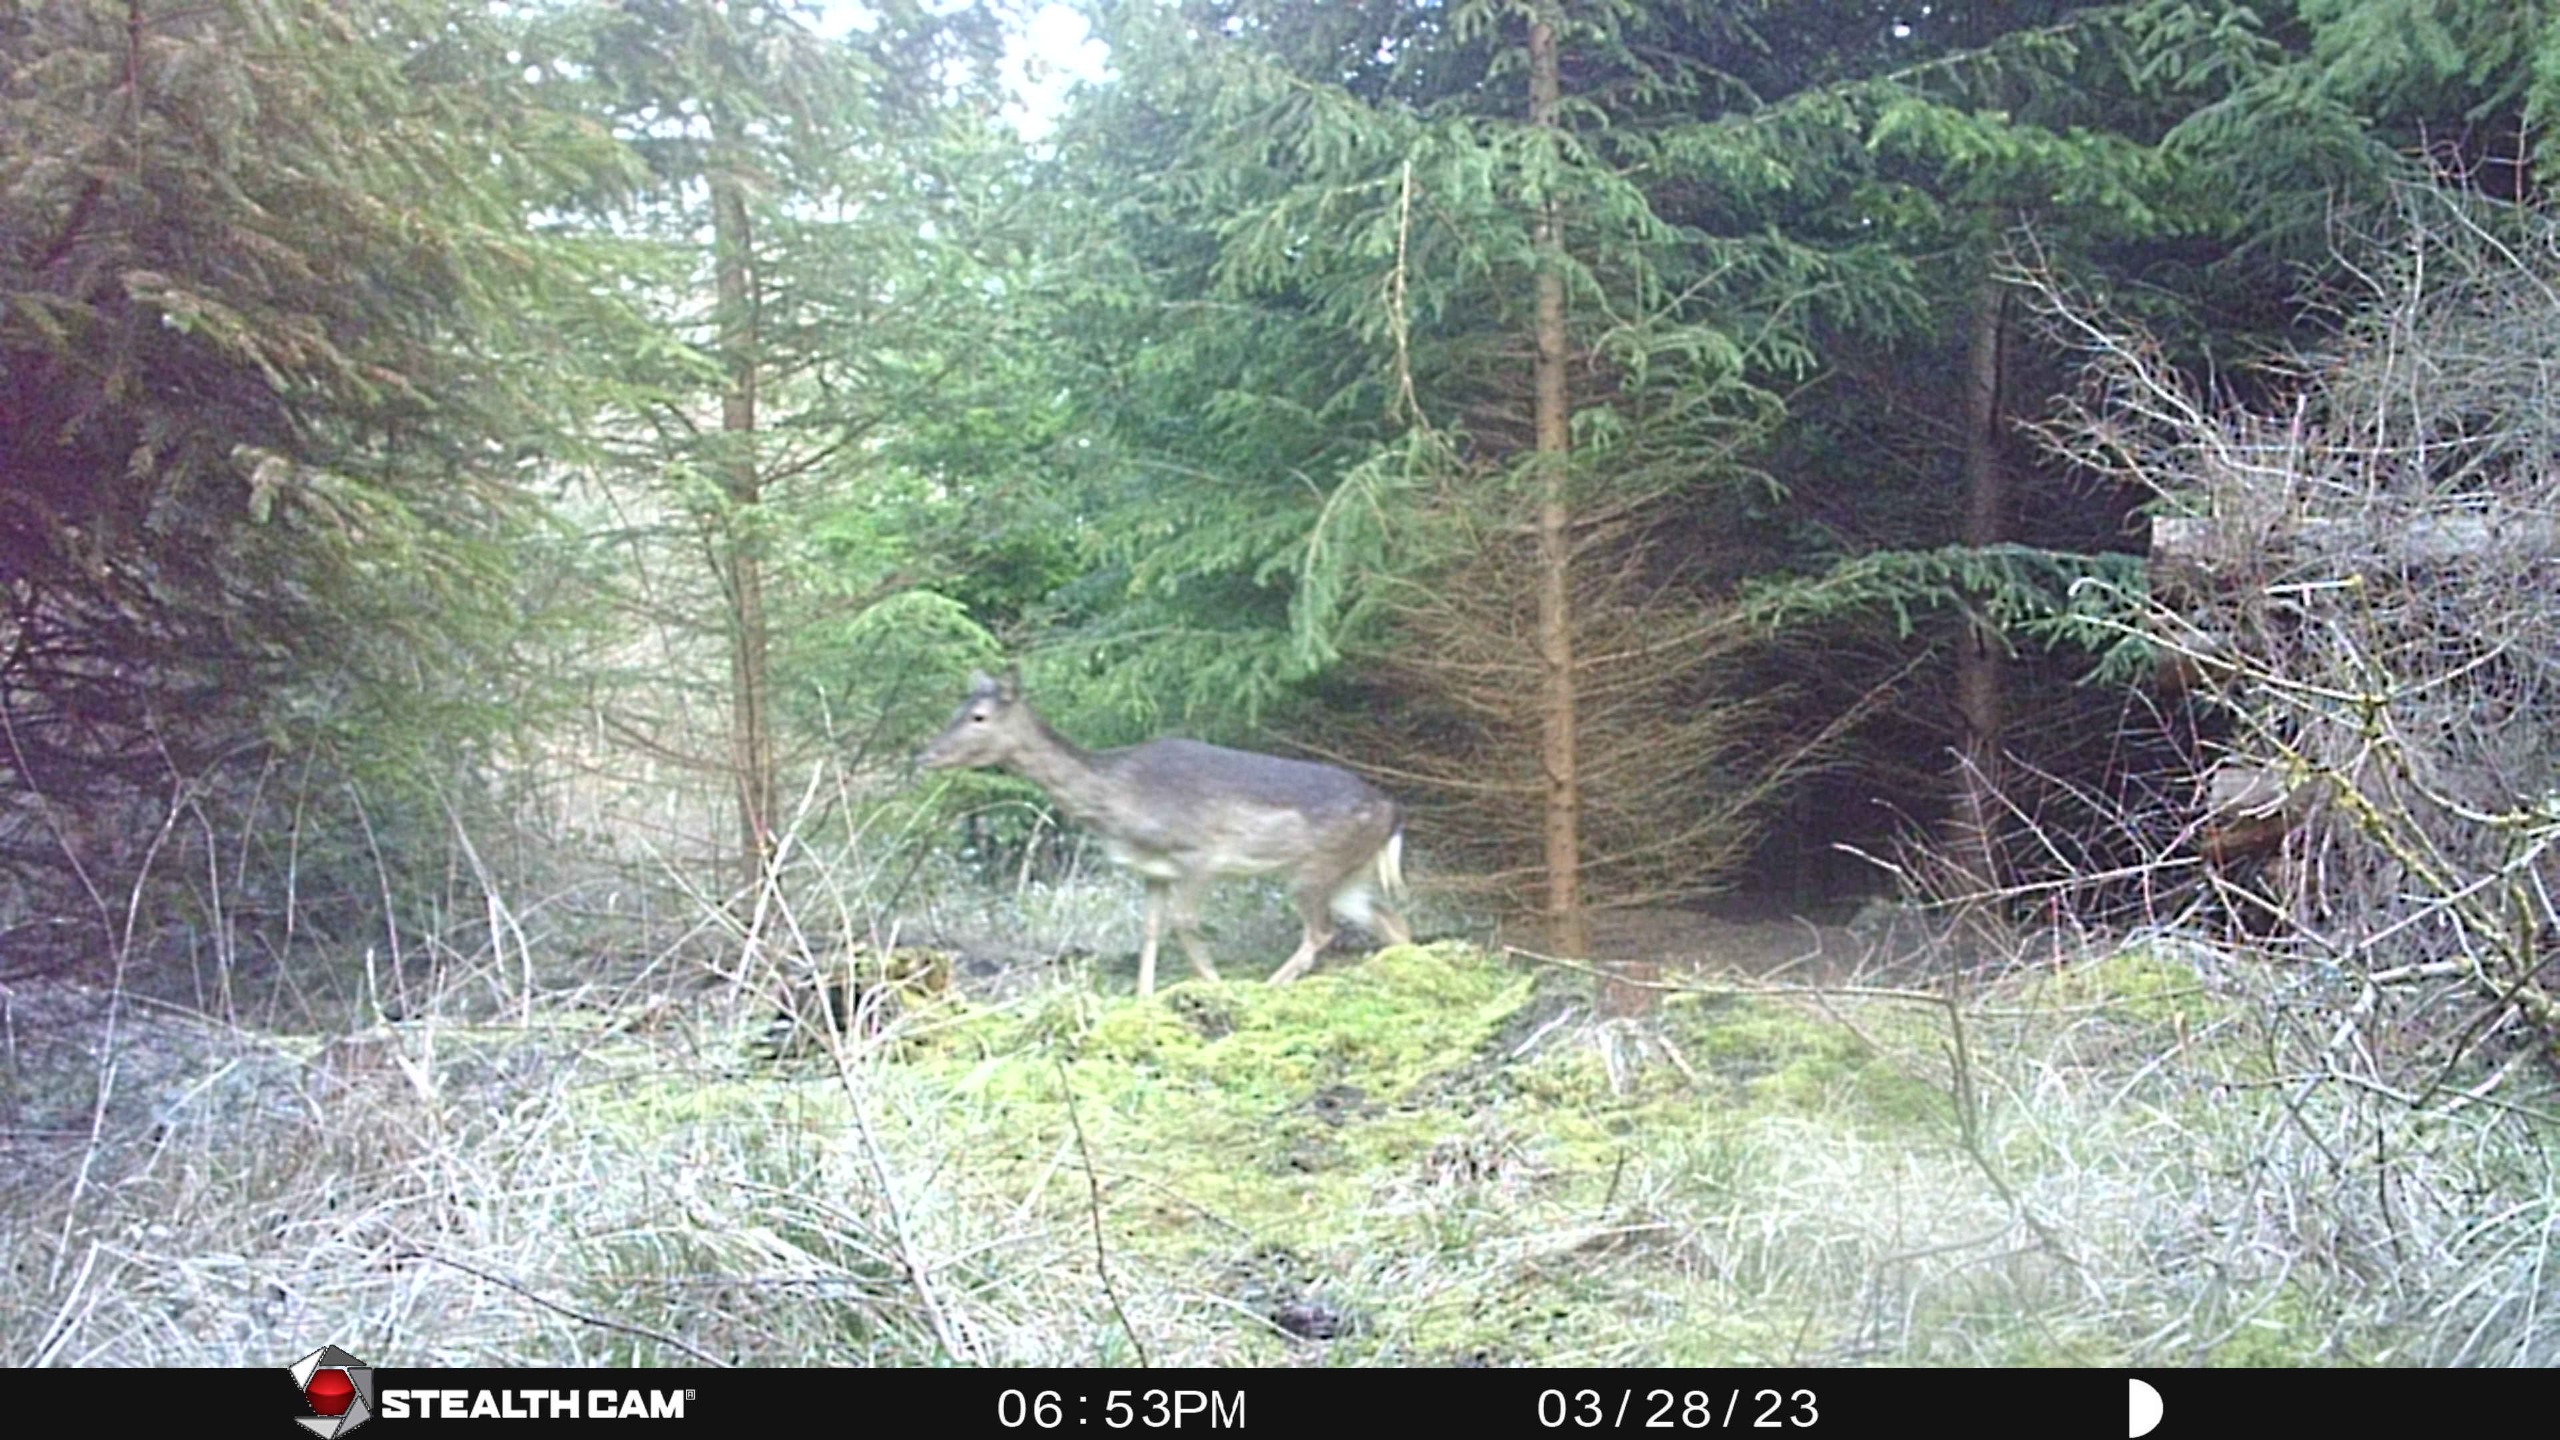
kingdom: Animalia
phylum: Chordata
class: Mammalia
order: Artiodactyla
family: Cervidae
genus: Dama
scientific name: Dama dama
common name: Dådyr
